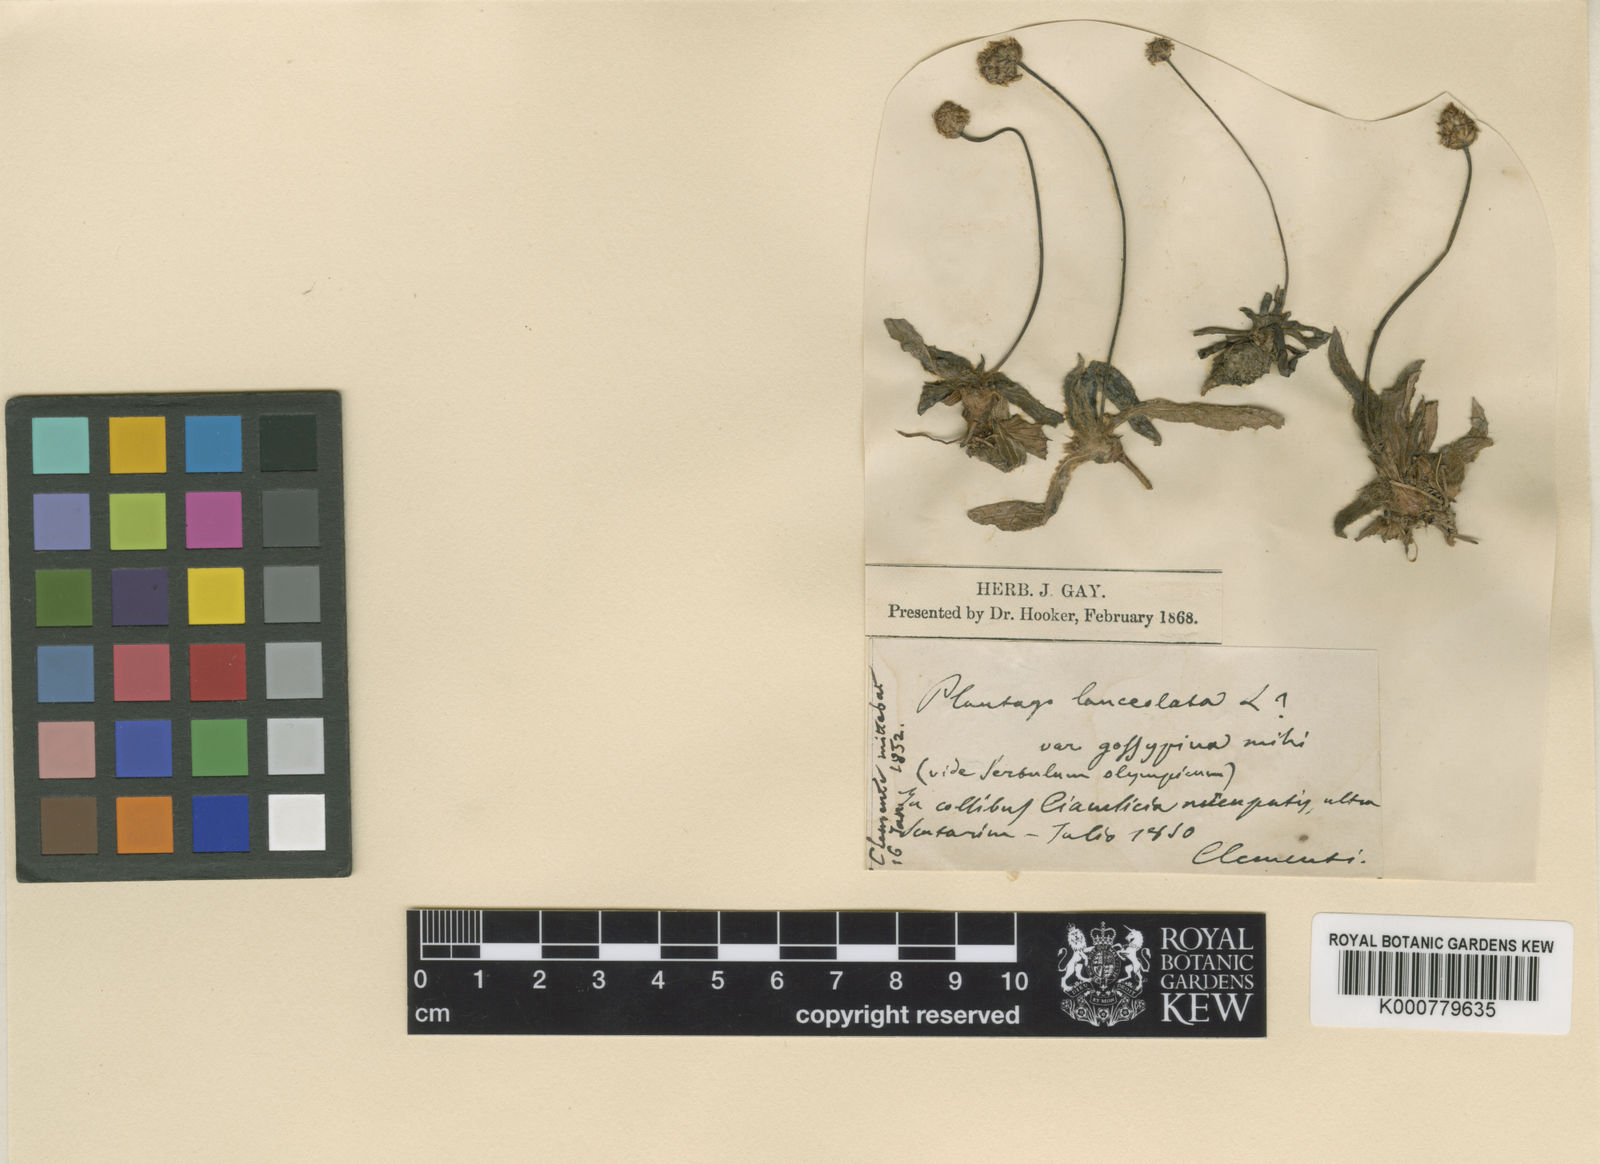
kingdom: Plantae
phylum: Tracheophyta
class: Magnoliopsida
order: Lamiales
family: Plantaginaceae
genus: Plantago
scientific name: Plantago lanceolata
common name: Ribwort plantain
